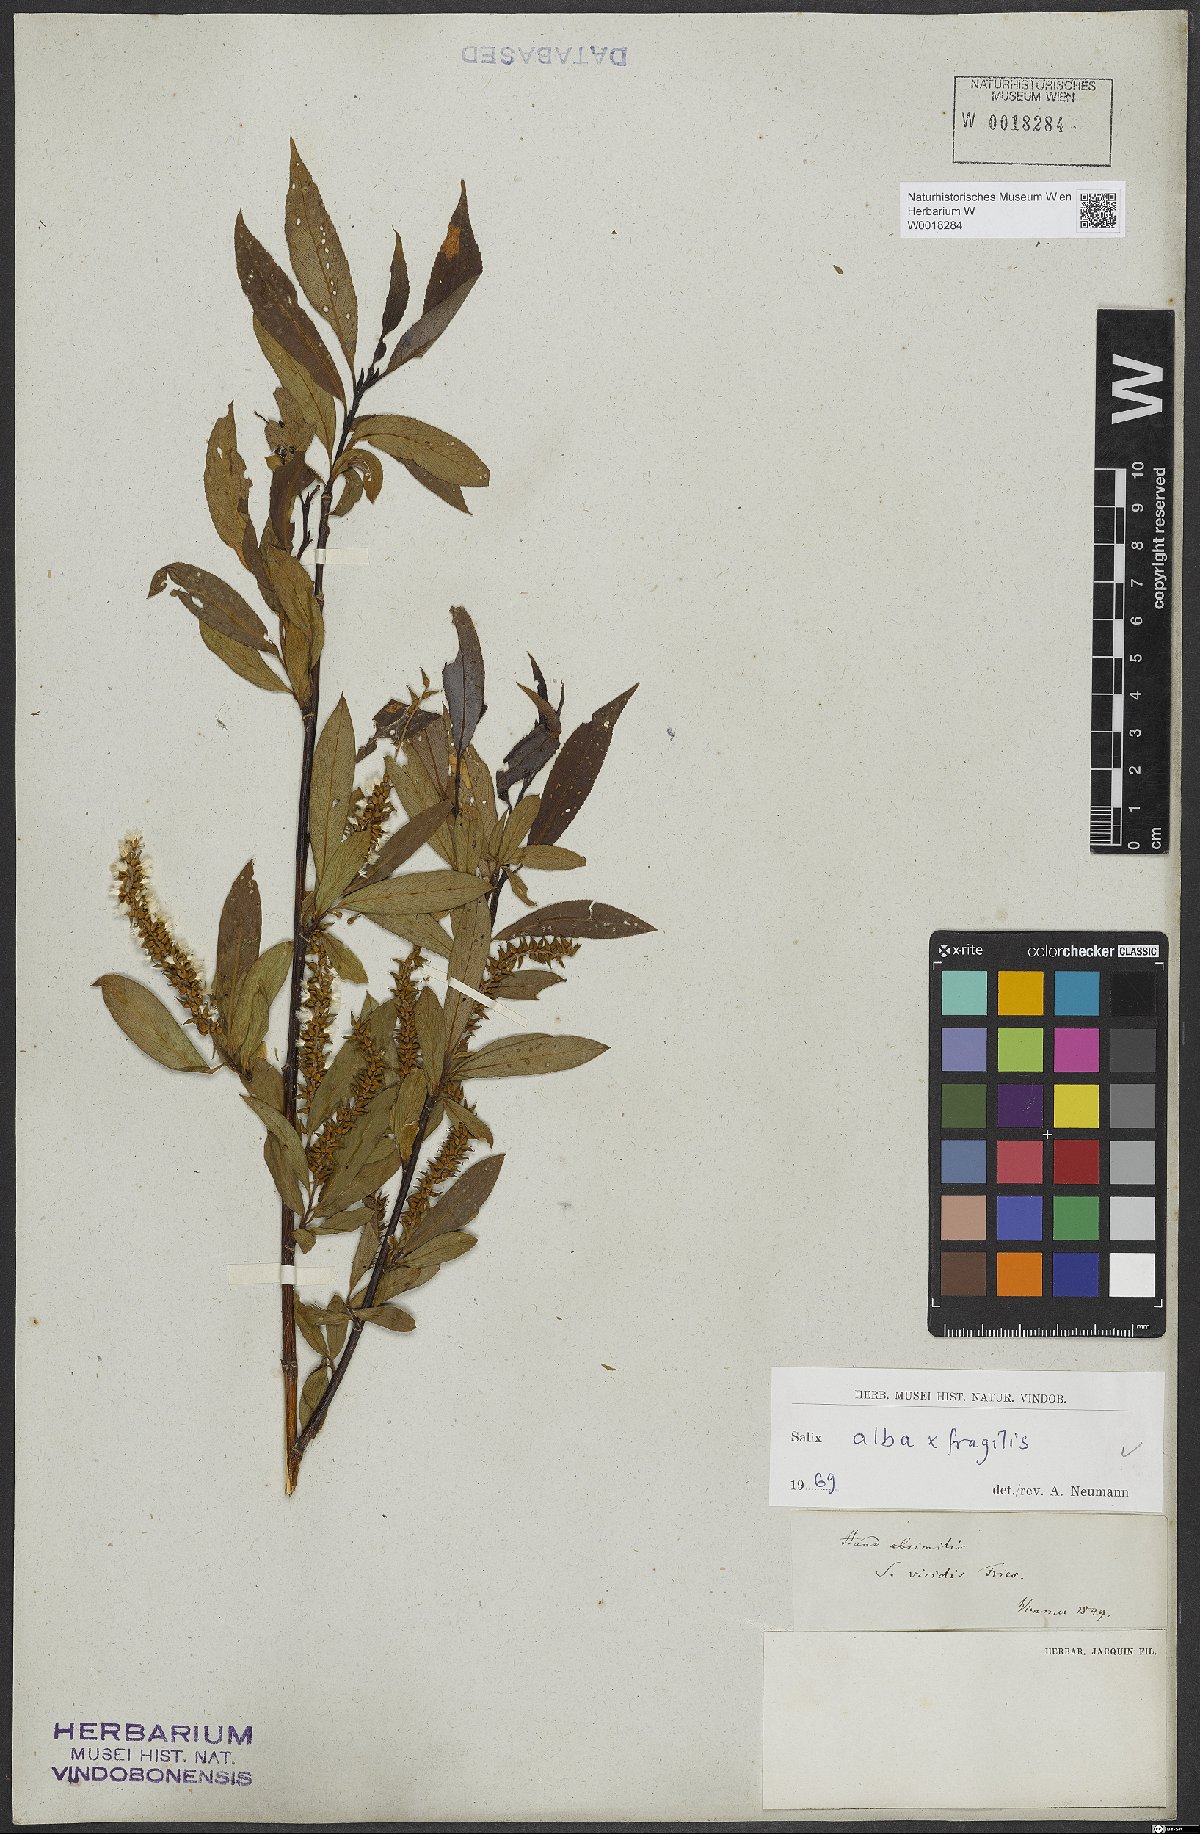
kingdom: Plantae
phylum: Tracheophyta
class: Magnoliopsida
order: Malpighiales
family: Salicaceae
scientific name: Salicaceae
